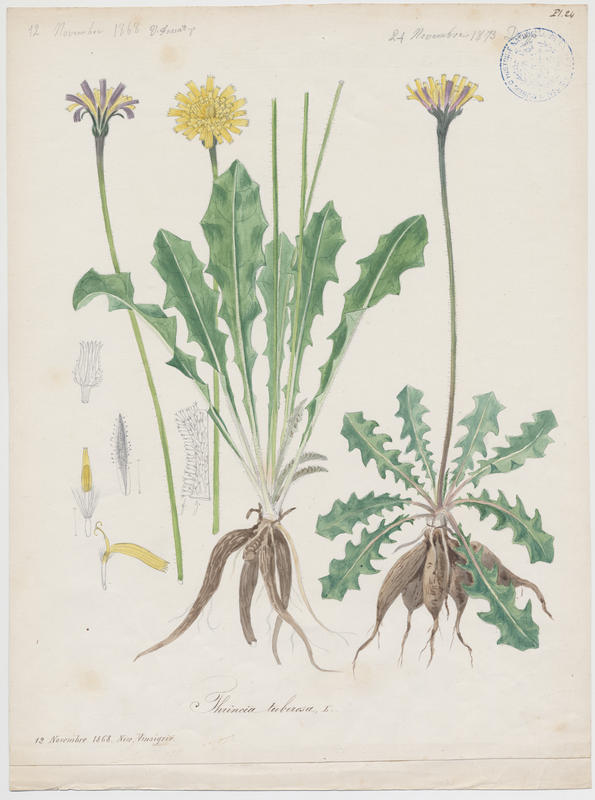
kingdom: Plantae
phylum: Tracheophyta
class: Magnoliopsida
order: Asterales
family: Asteraceae
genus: Thrincia
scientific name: Thrincia tuberosa
